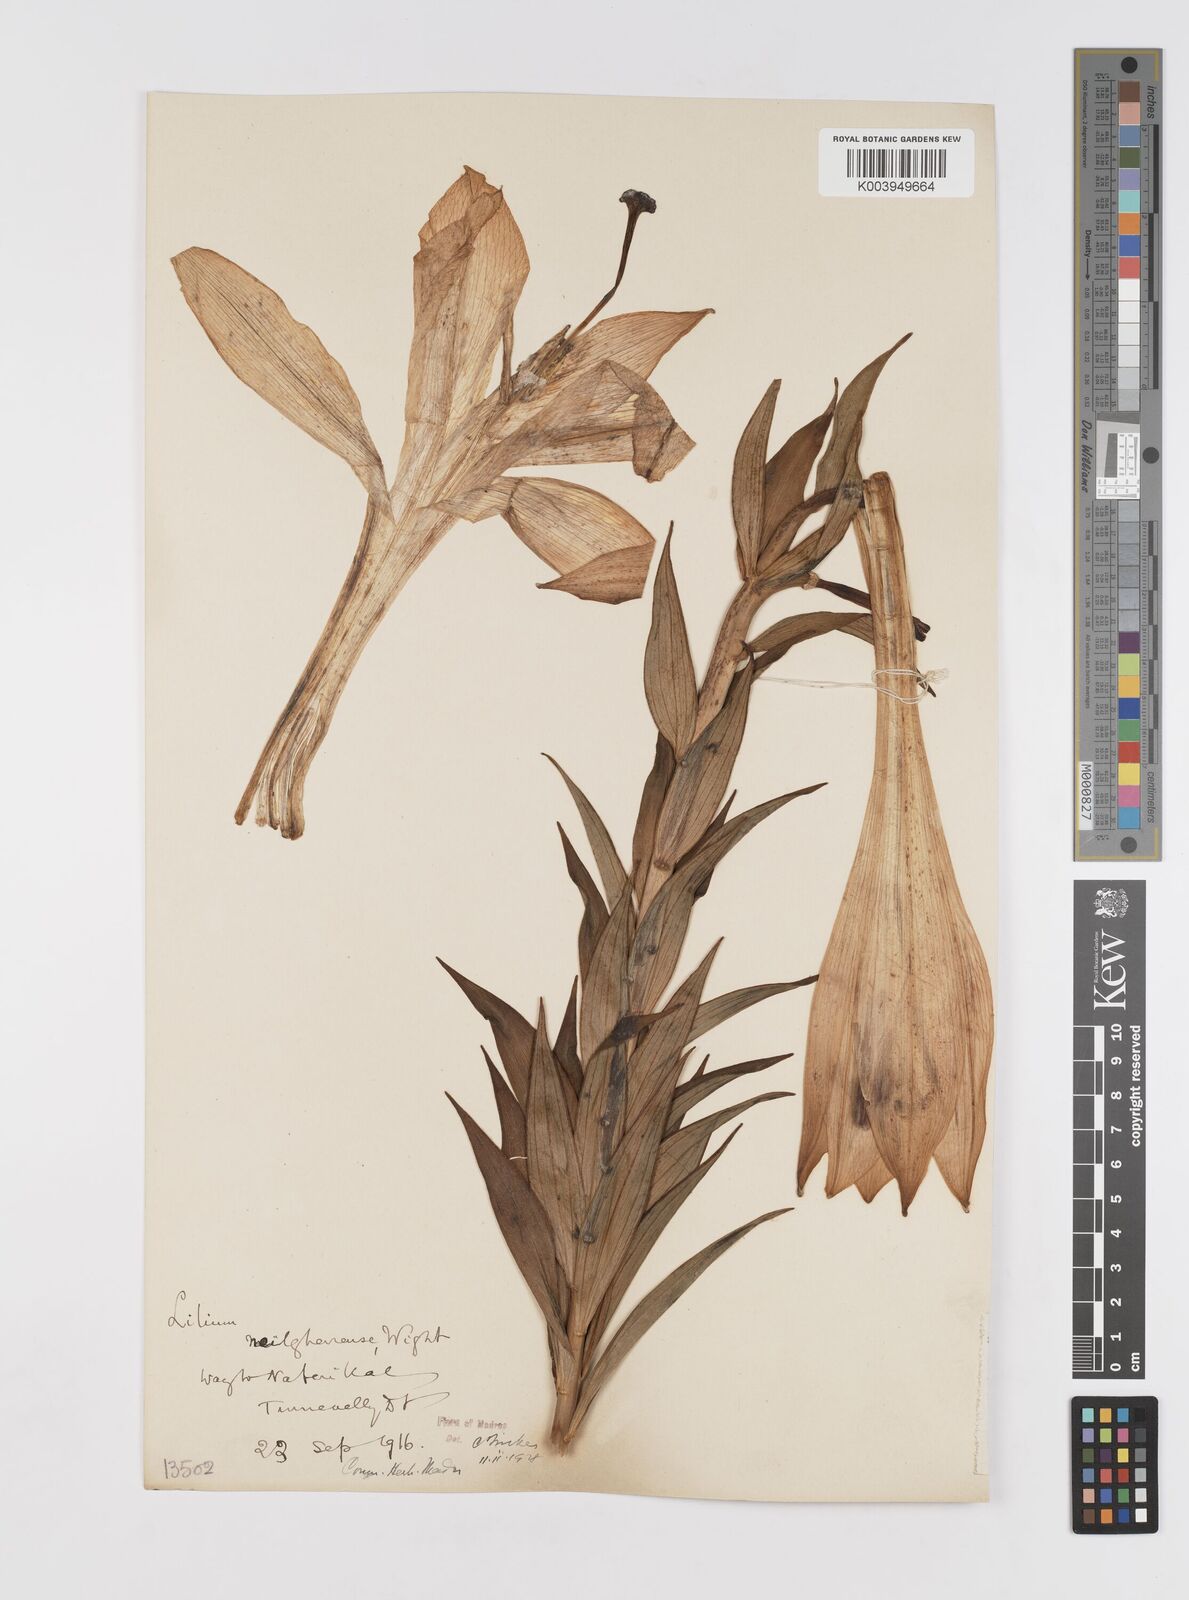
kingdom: Plantae
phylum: Tracheophyta
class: Liliopsida
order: Liliales
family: Liliaceae
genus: Lilium
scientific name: Lilium wallichianum
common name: Wallich's lily
